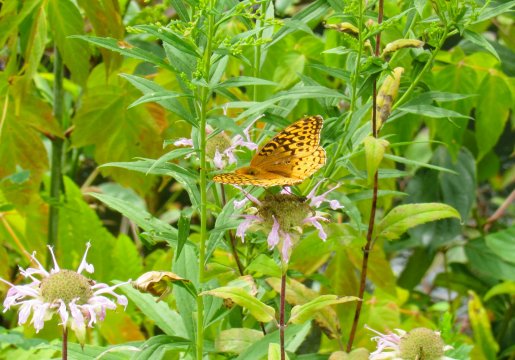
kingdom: Animalia
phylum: Arthropoda
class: Insecta
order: Lepidoptera
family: Nymphalidae
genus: Speyeria
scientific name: Speyeria cybele
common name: Great Spangled Fritillary
